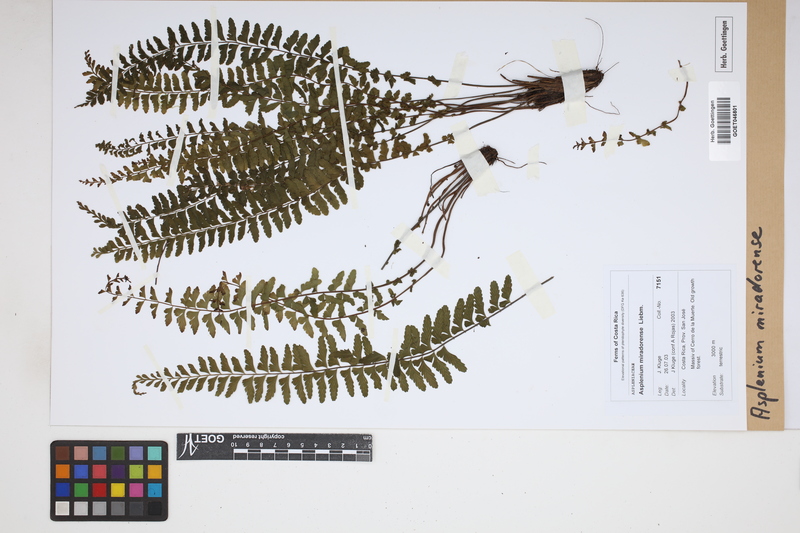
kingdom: Plantae
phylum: Tracheophyta
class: Polypodiopsida
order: Polypodiales
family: Aspleniaceae
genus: Asplenium
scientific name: Asplenium miradorense
